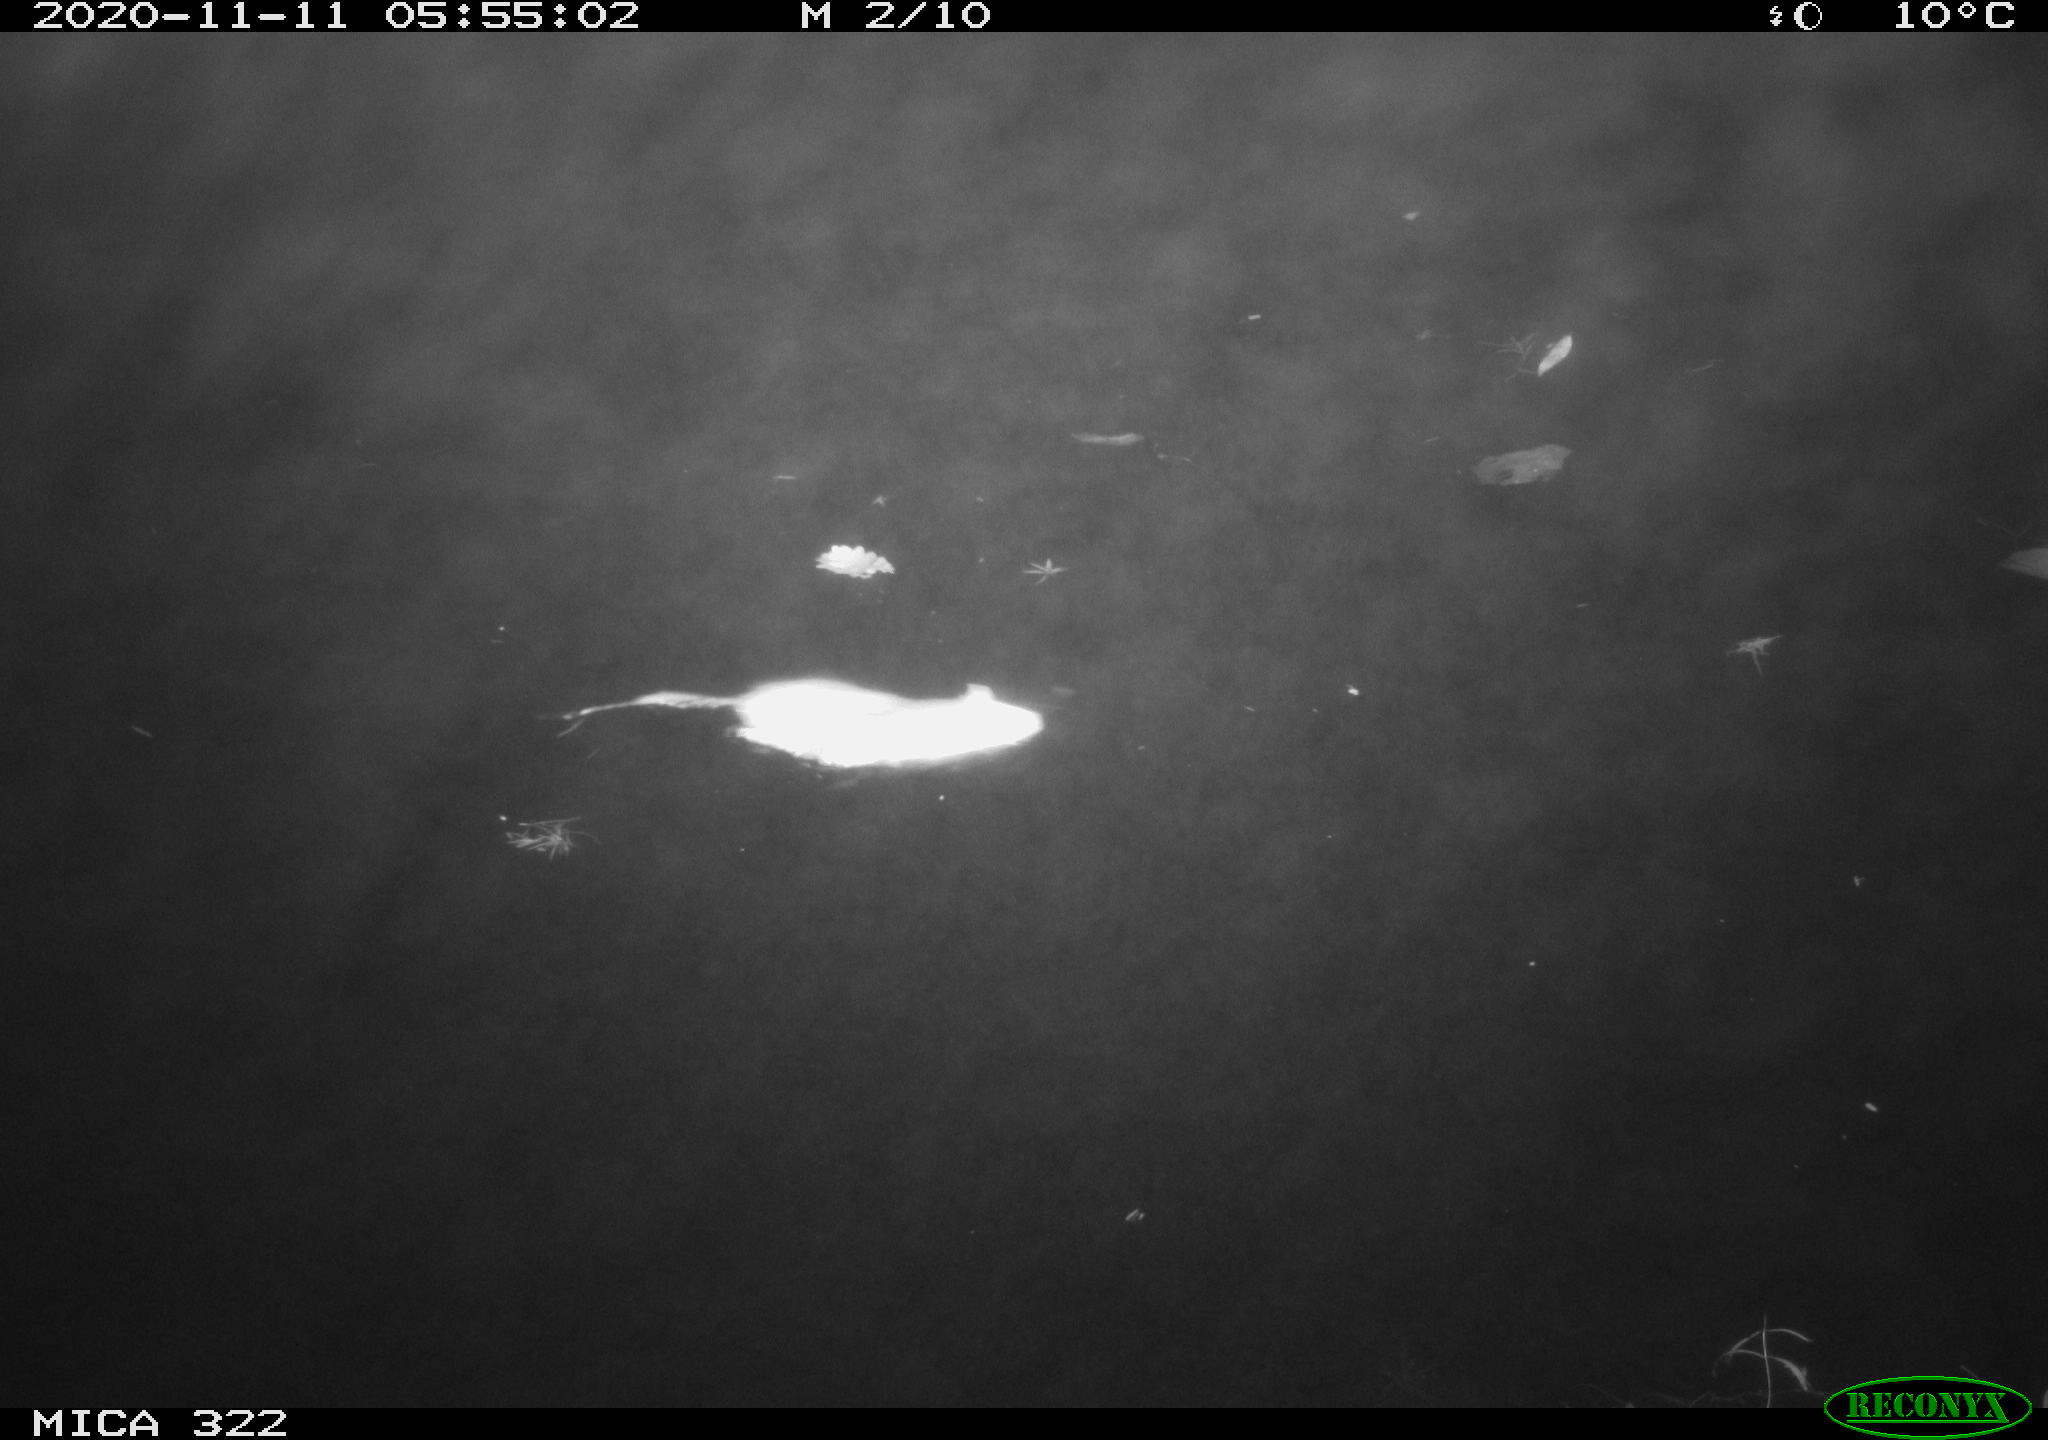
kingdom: Animalia
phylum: Chordata
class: Mammalia
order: Rodentia
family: Muridae
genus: Rattus
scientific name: Rattus norvegicus
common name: Brown rat
